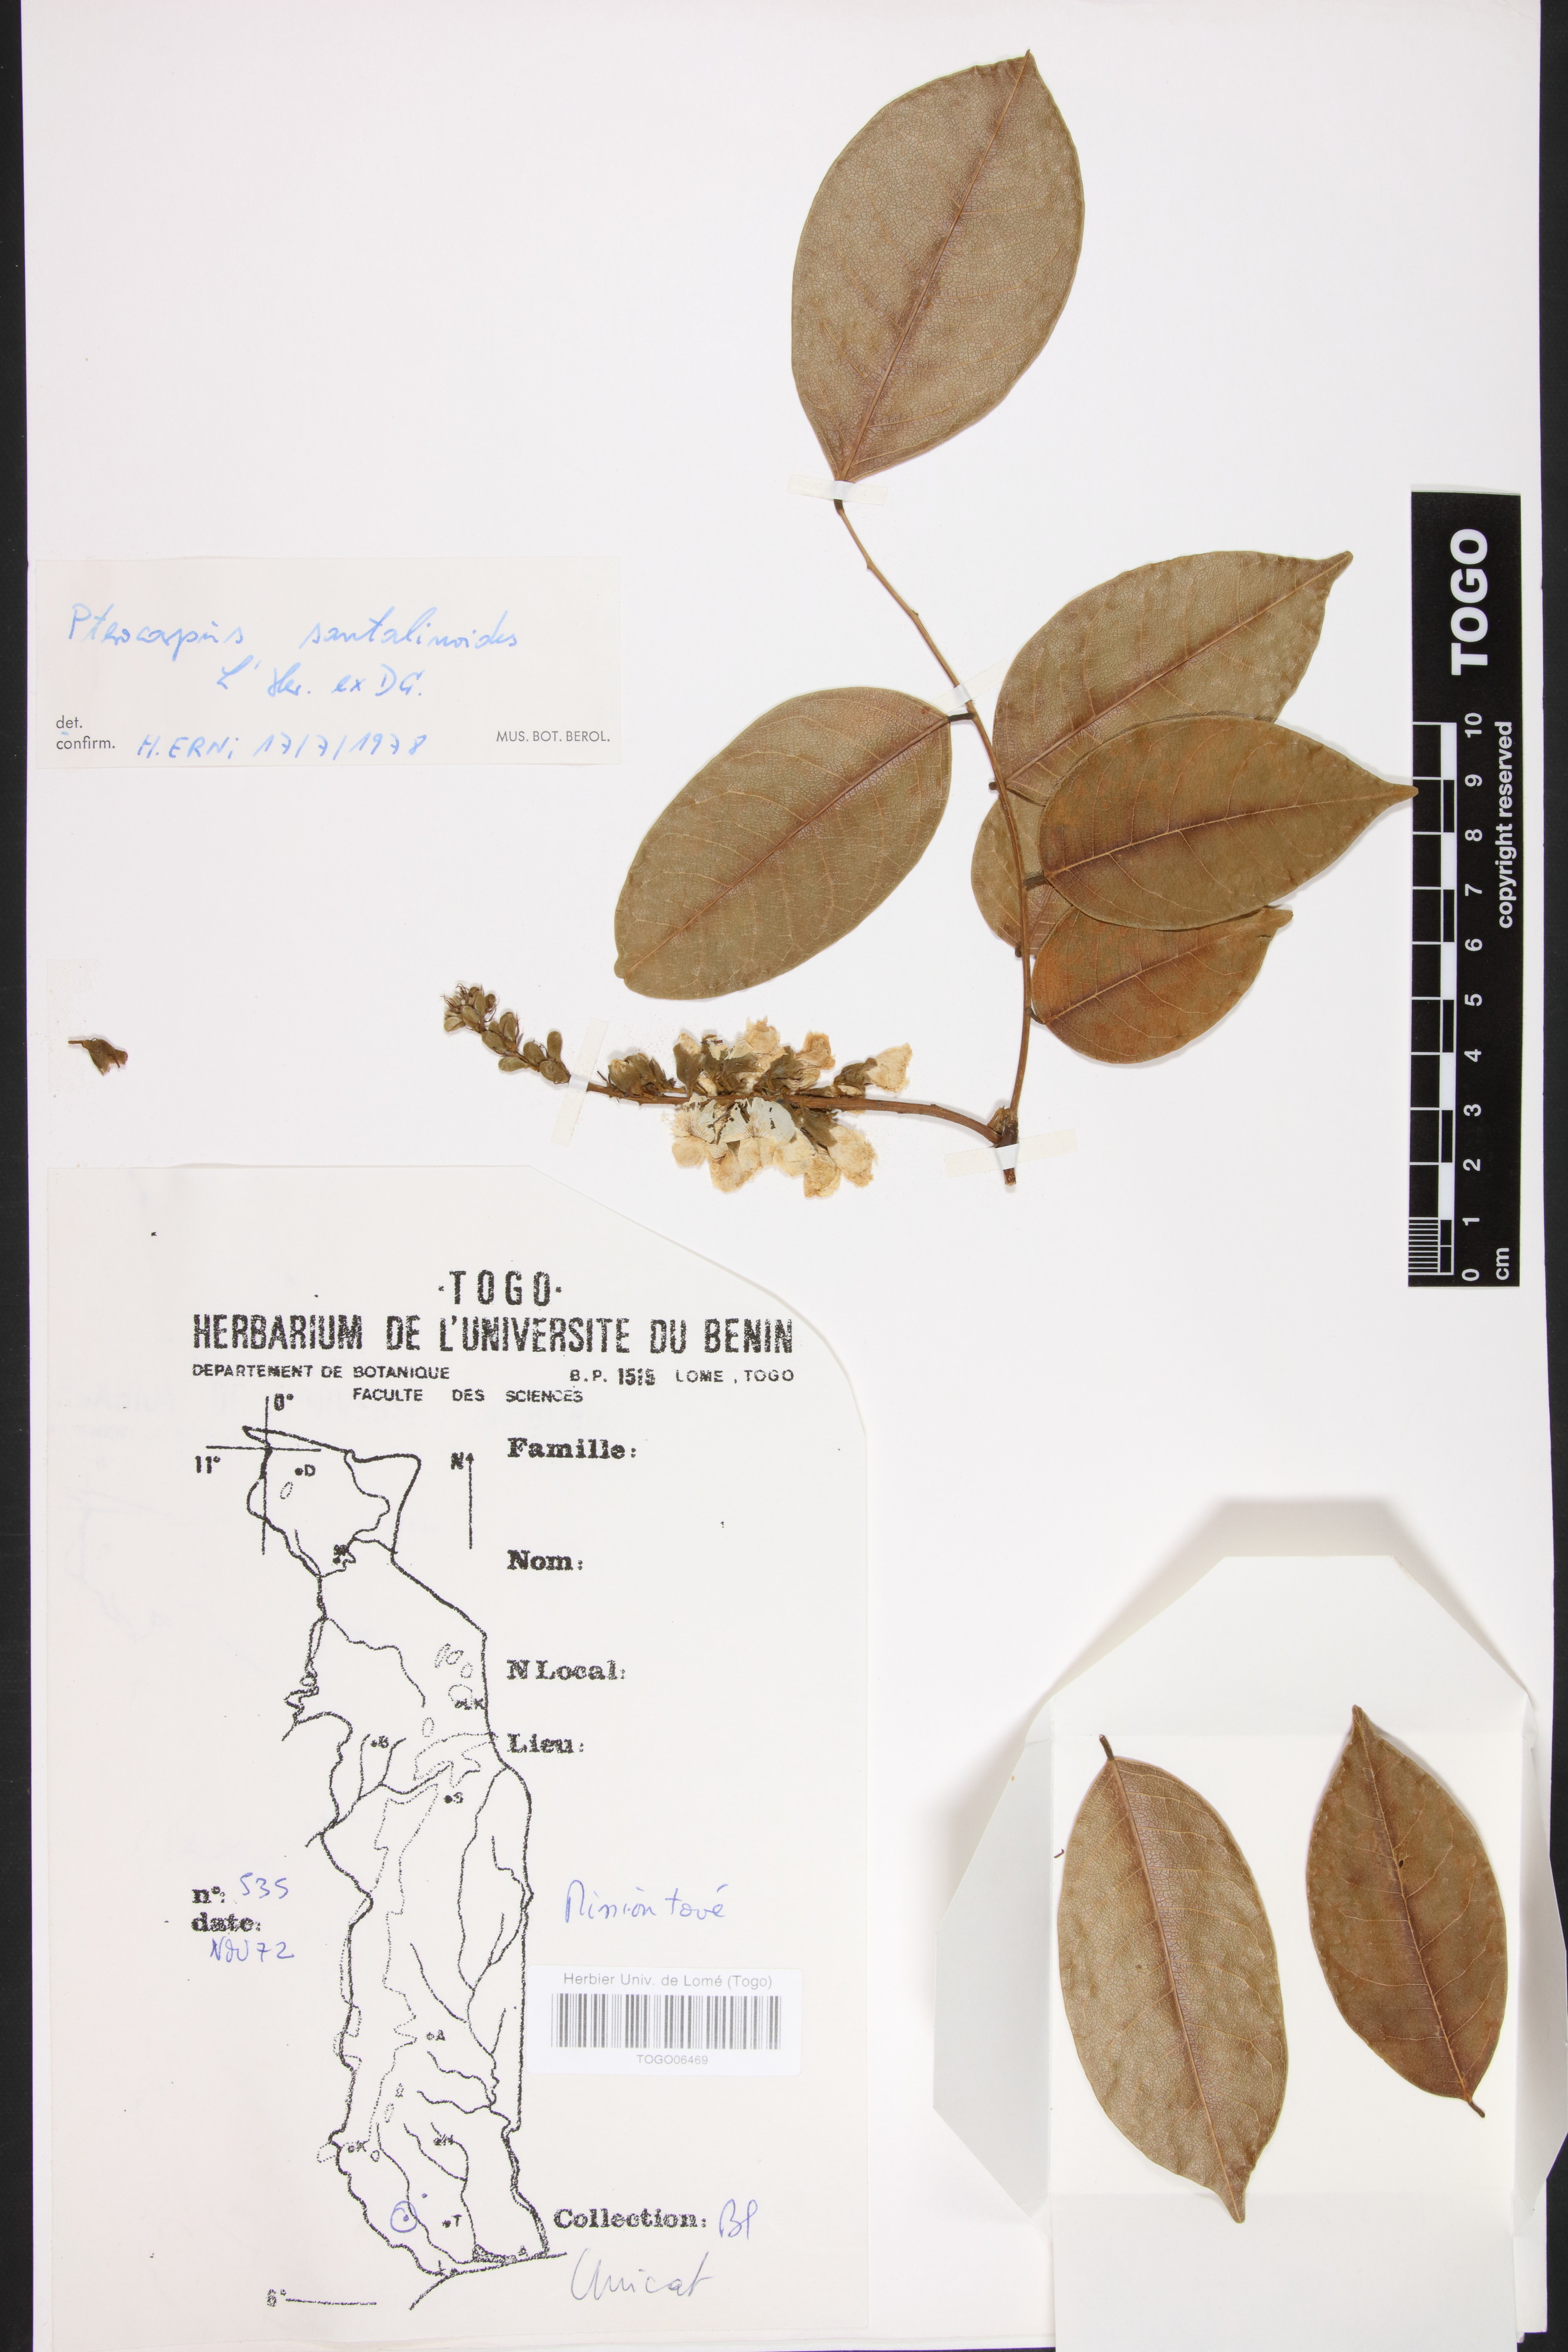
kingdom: Plantae
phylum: Tracheophyta
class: Magnoliopsida
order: Fabales
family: Fabaceae
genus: Pterocarpus
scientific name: Pterocarpus santalinoides
